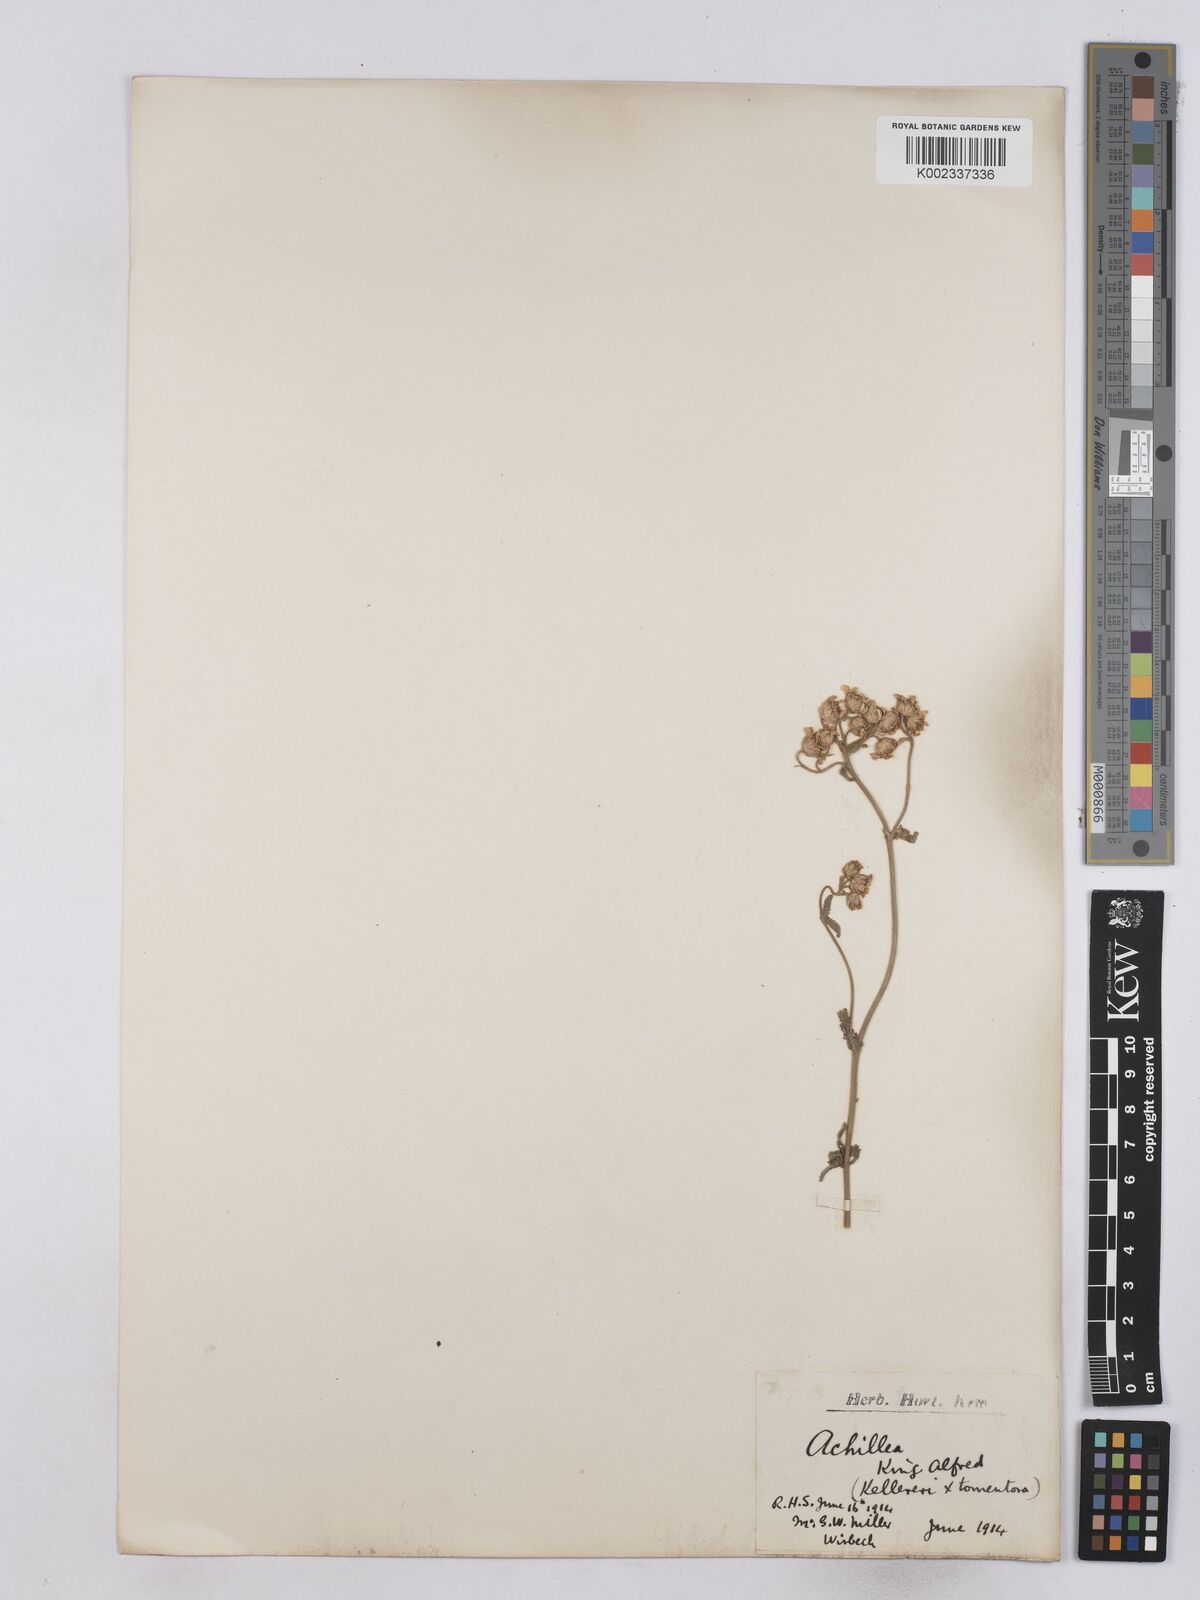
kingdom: Plantae
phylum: Tracheophyta
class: Magnoliopsida
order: Asterales
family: Asteraceae
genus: Achillea
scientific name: Achillea
